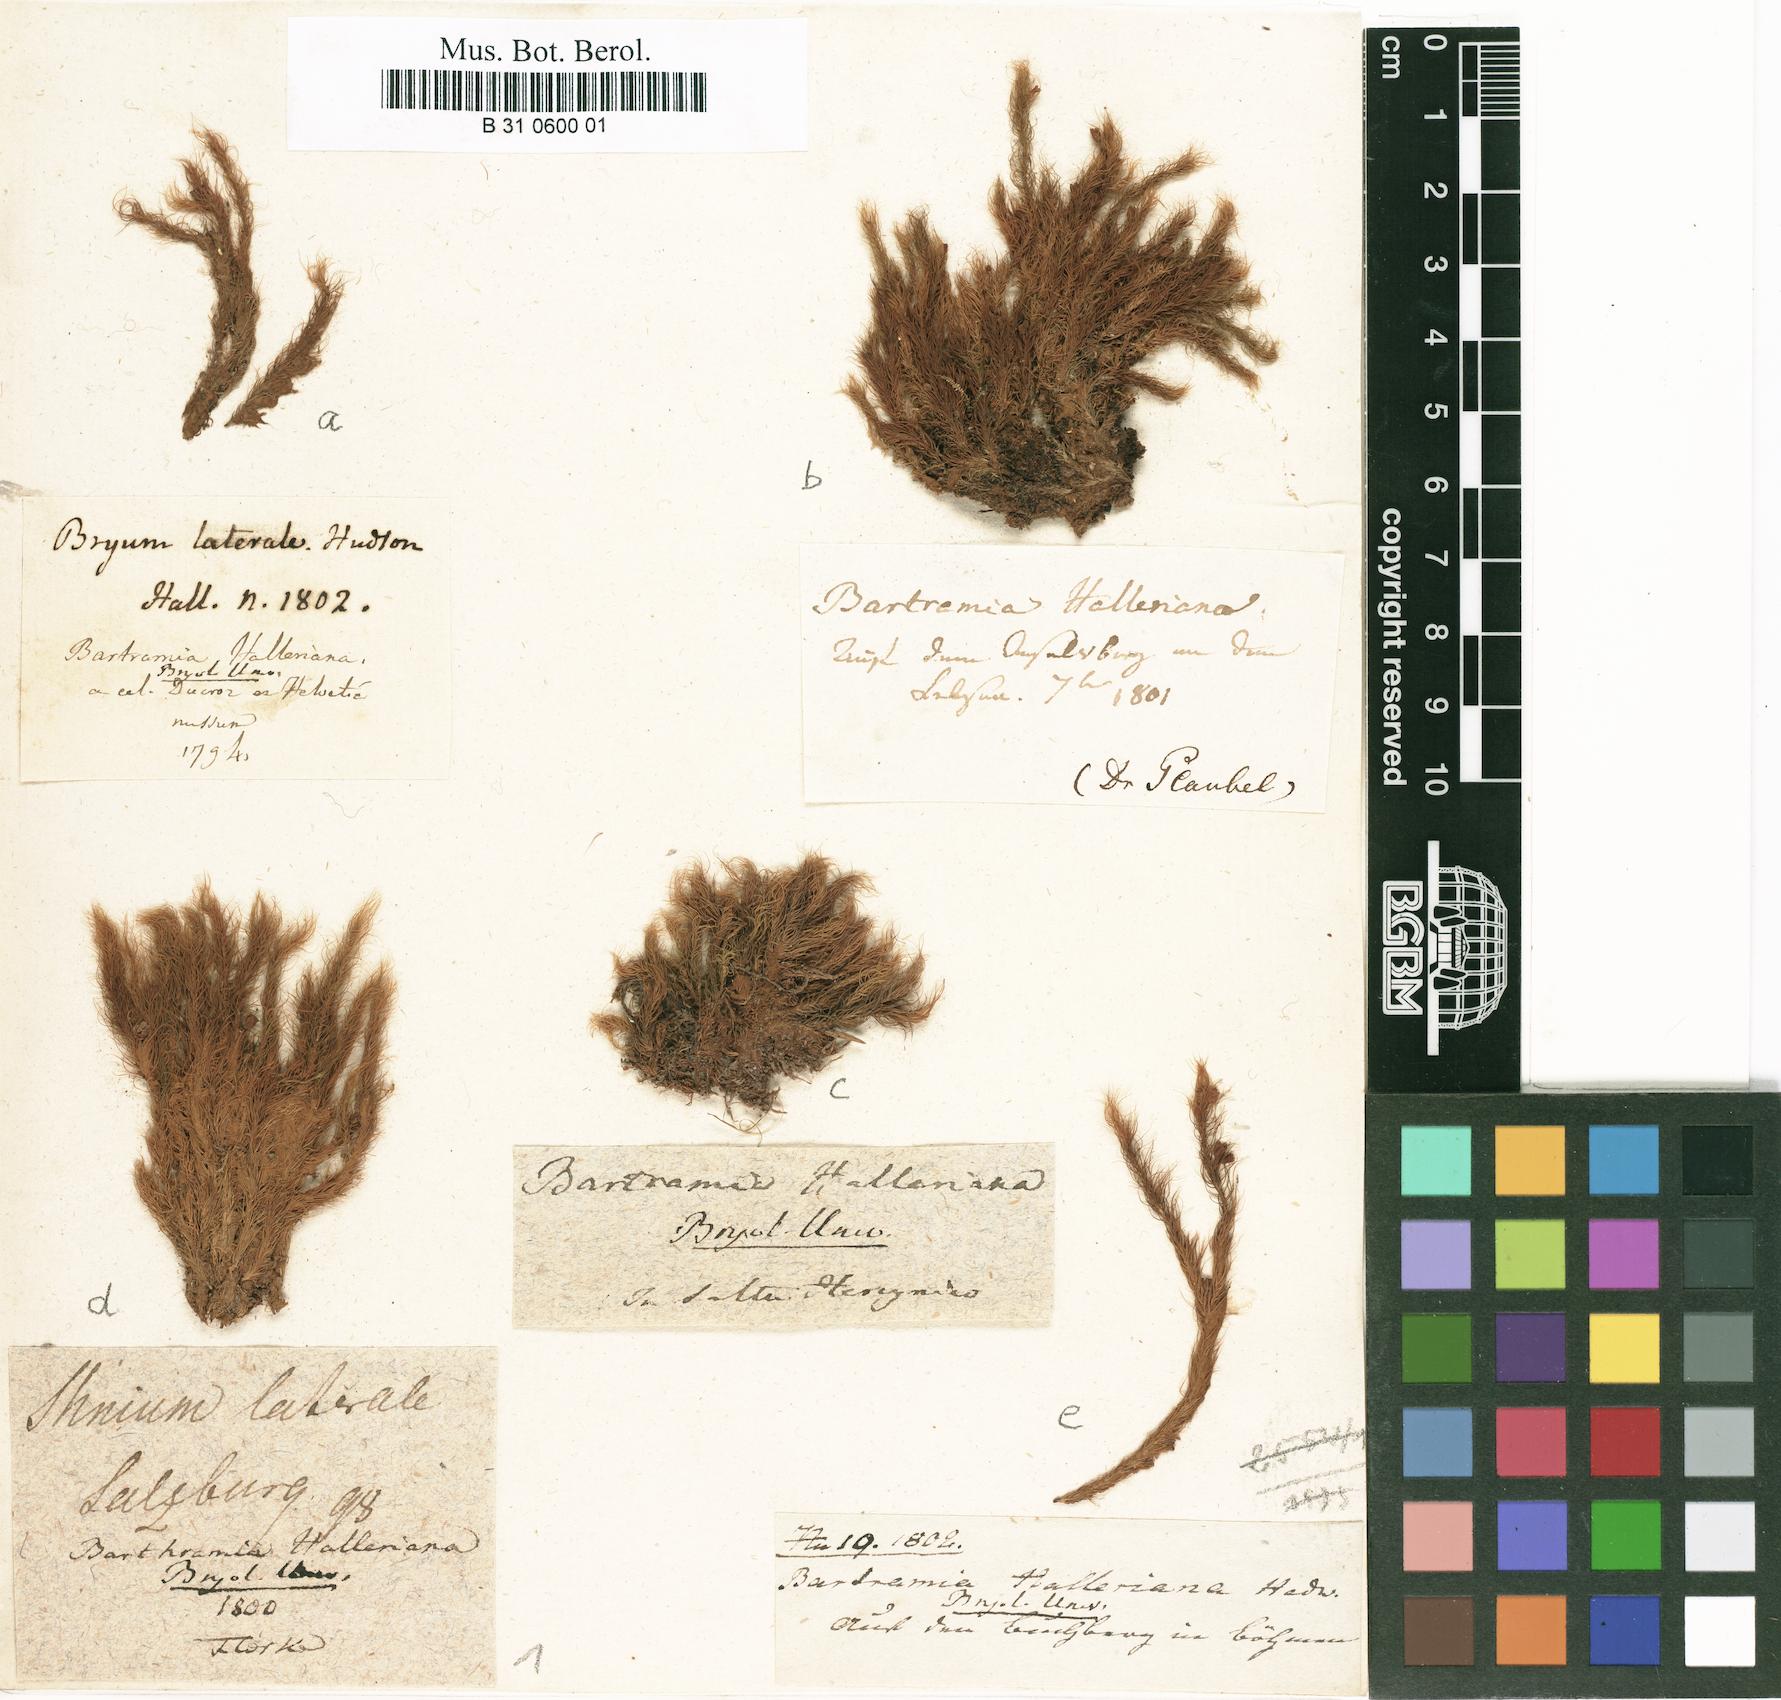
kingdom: Plantae
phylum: Bryophyta
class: Bryopsida
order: Bartramiales
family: Bartramiaceae
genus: Bartramia
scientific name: Bartramia halleriana
